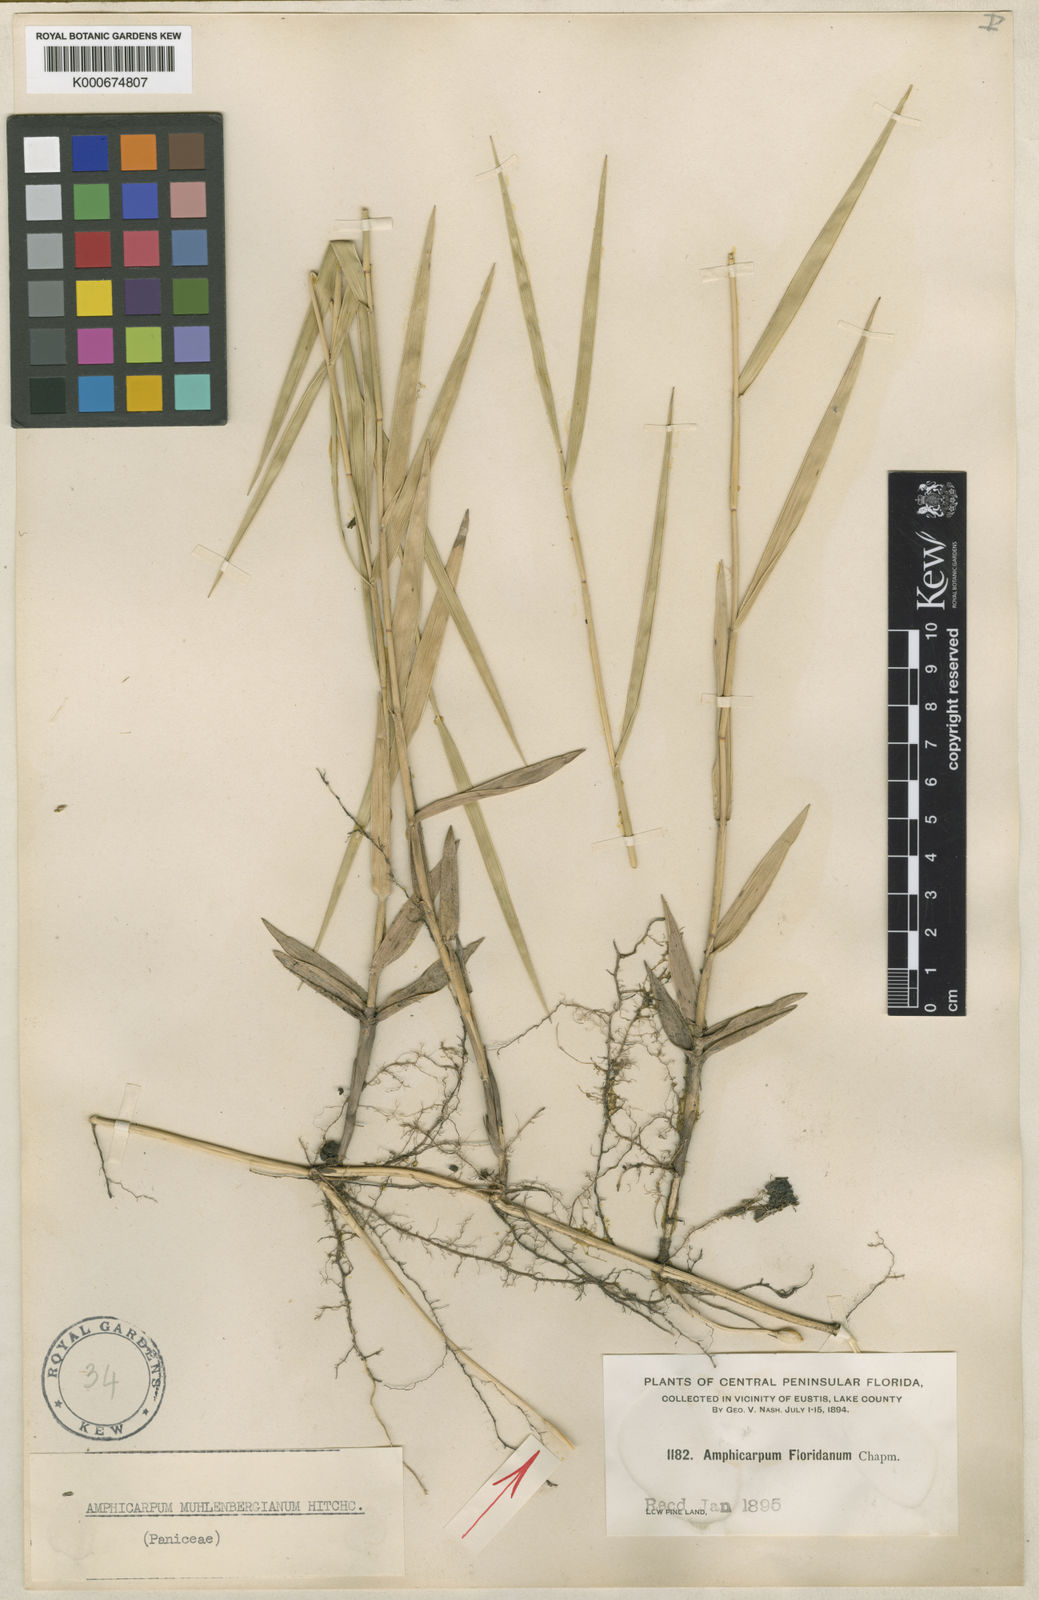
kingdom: Plantae
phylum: Tracheophyta
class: Liliopsida
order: Poales
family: Poaceae
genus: Amphicarpum
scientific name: Amphicarpum muehlenbergianum
